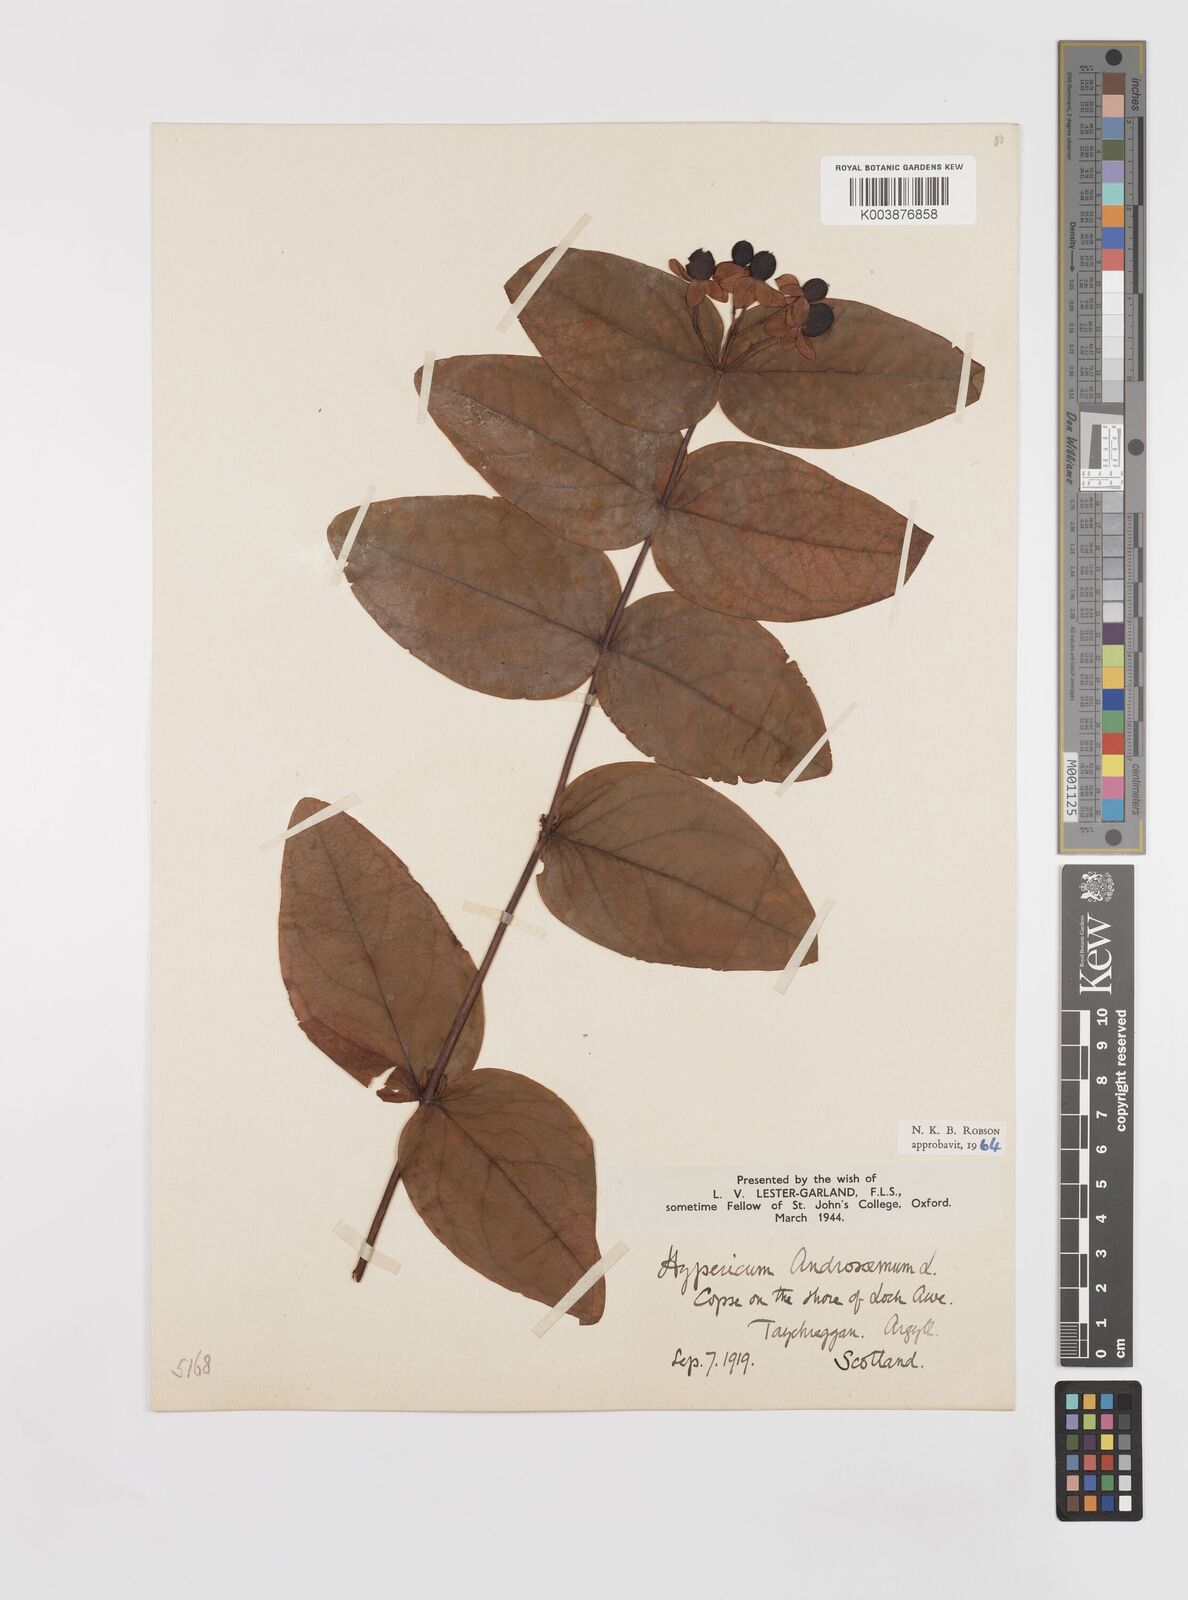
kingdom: Plantae
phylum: Tracheophyta
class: Magnoliopsida
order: Malpighiales
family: Hypericaceae
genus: Hypericum
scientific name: Hypericum androsaemum
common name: Sweet-amber
